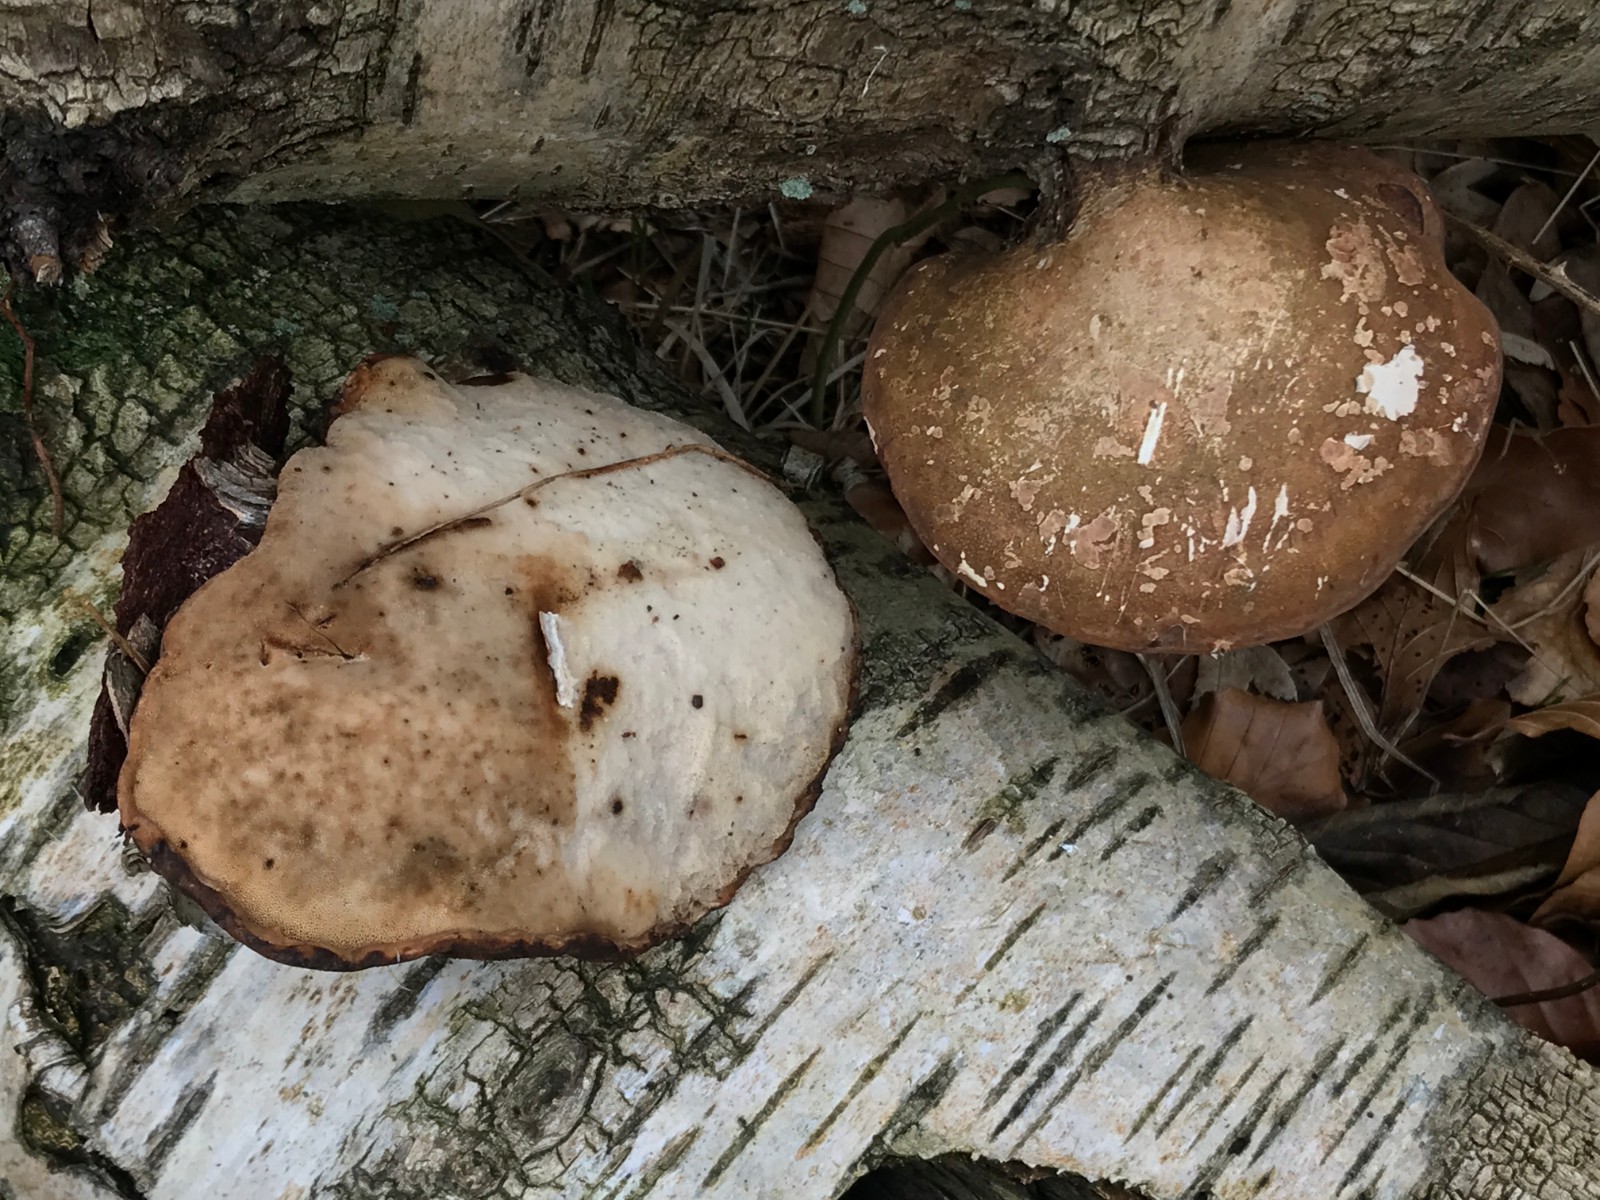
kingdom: Fungi
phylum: Basidiomycota
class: Agaricomycetes
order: Polyporales
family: Fomitopsidaceae
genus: Fomitopsis
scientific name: Fomitopsis betulina
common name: birkeporesvamp
